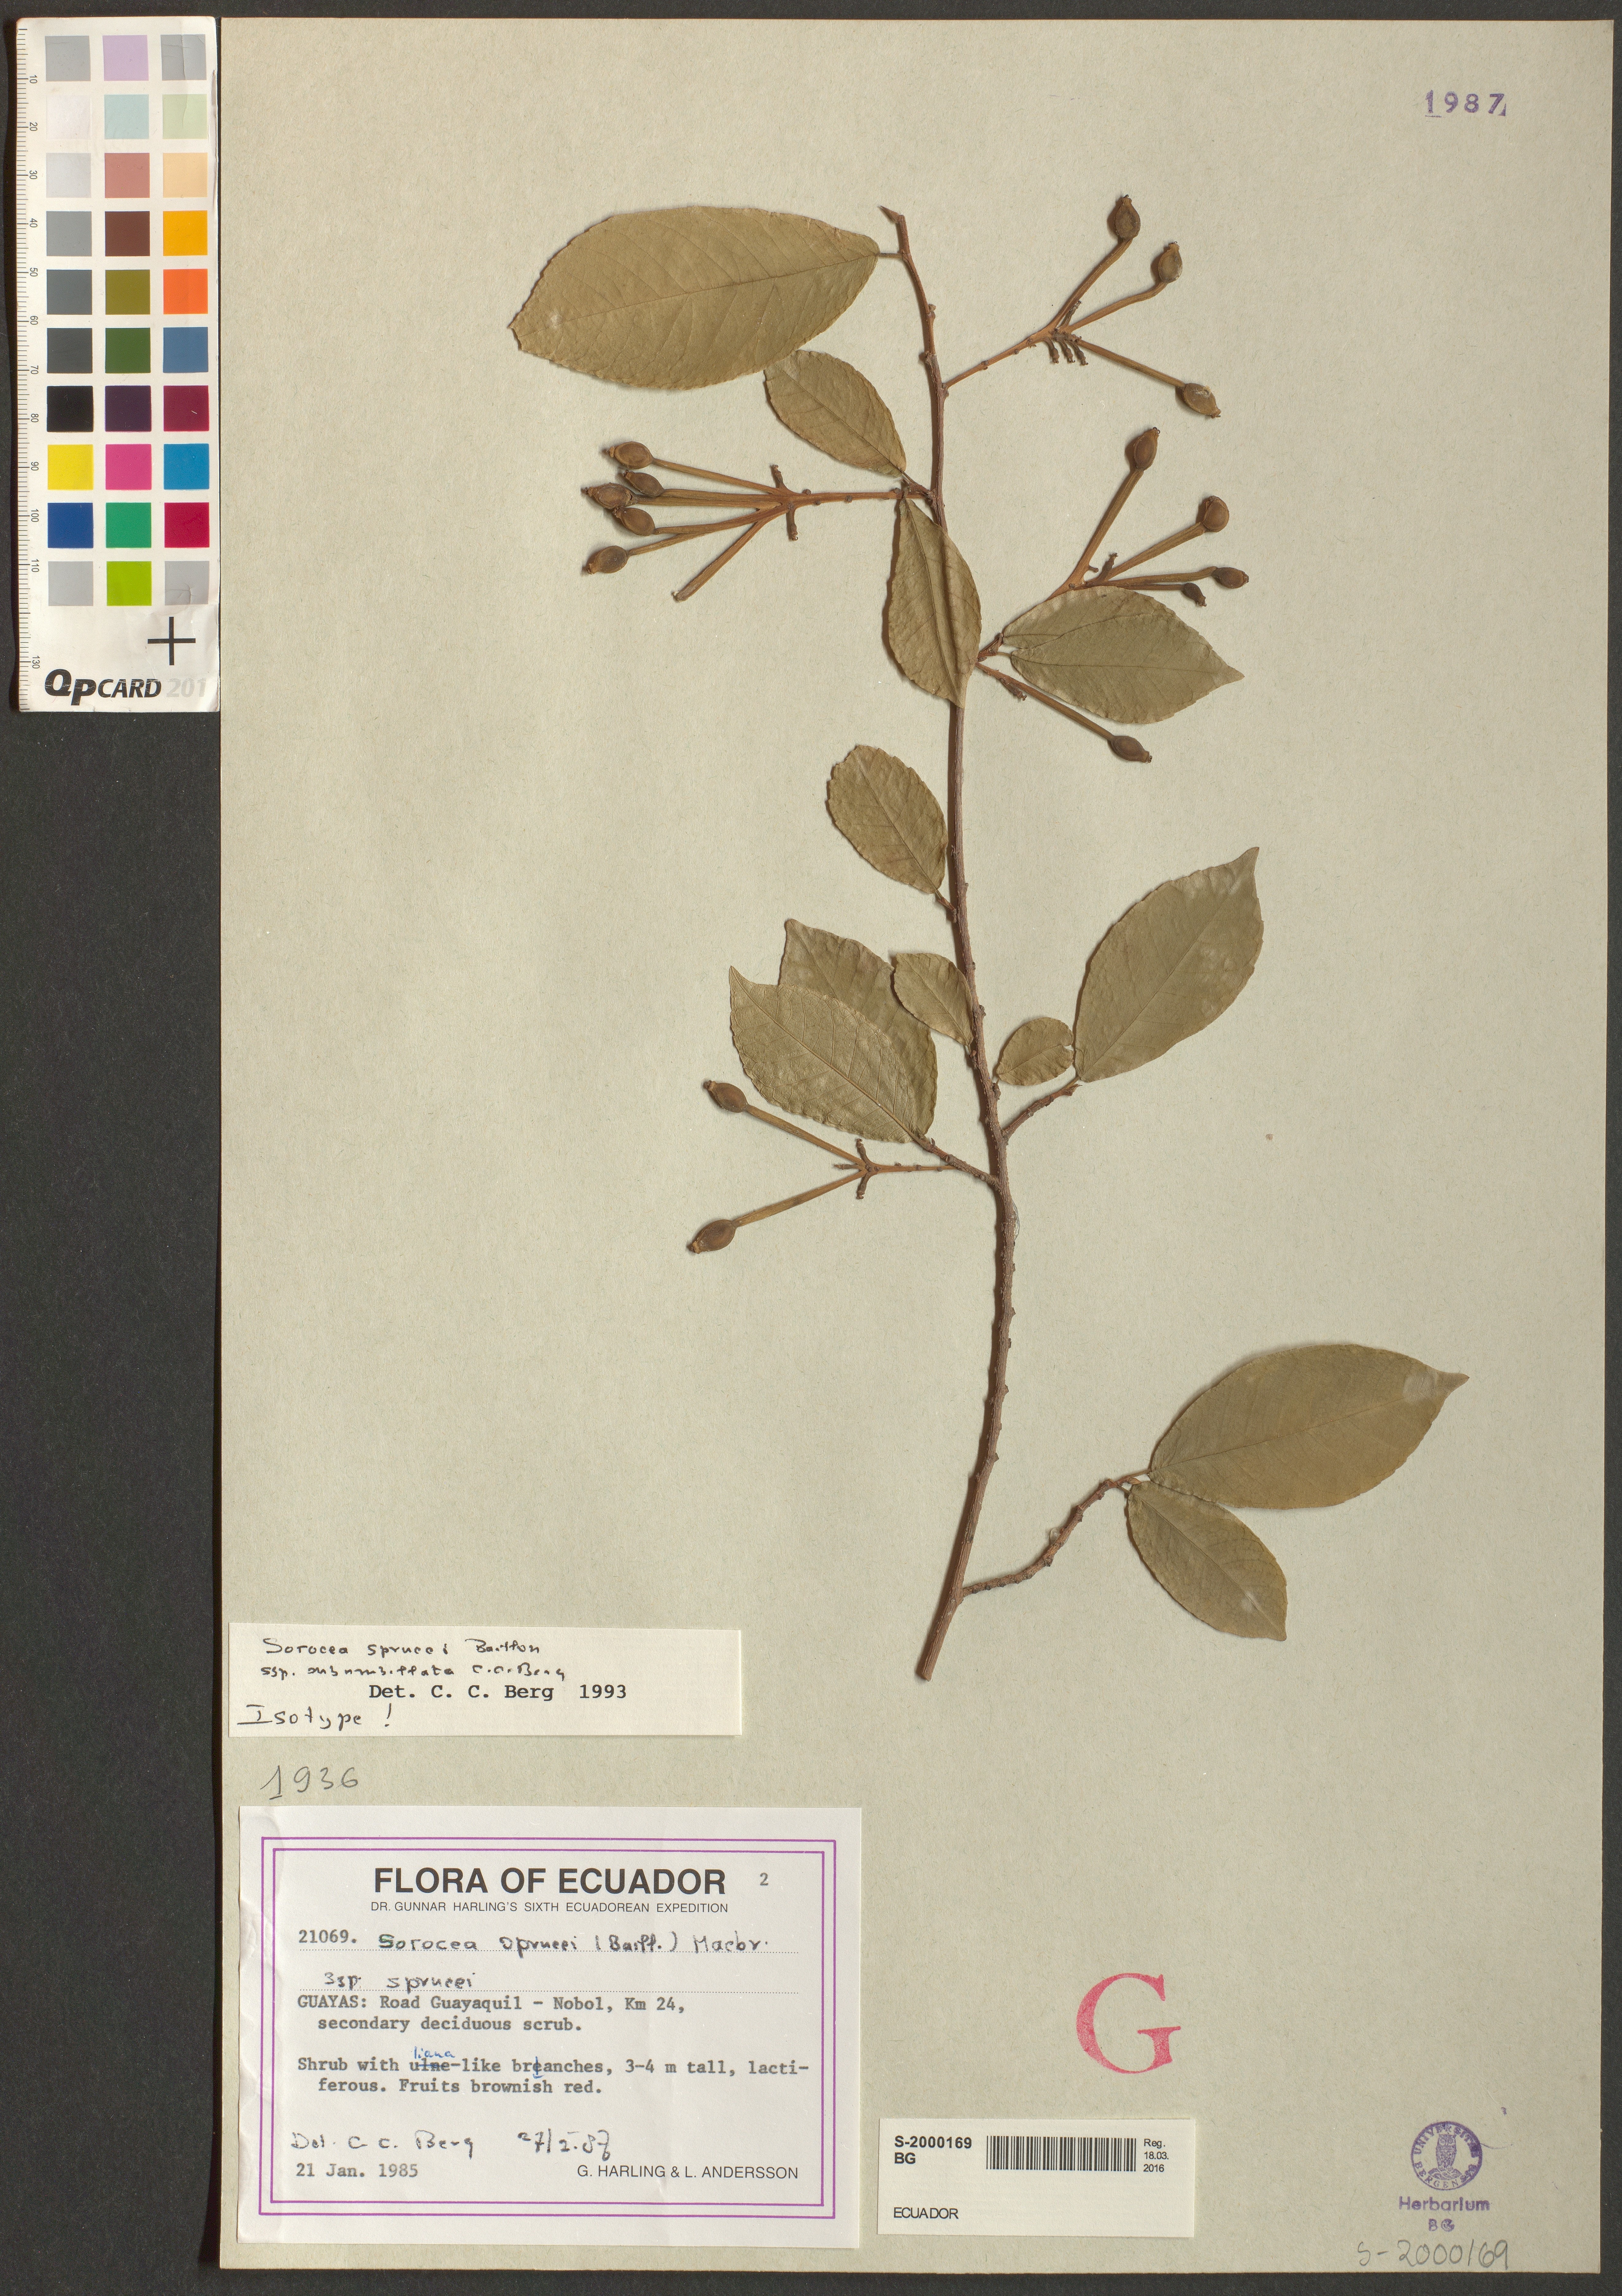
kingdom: Plantae
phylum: Tracheophyta
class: Magnoliopsida
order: Rosales
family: Moraceae
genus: Sorocea
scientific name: Sorocea subumbellata
